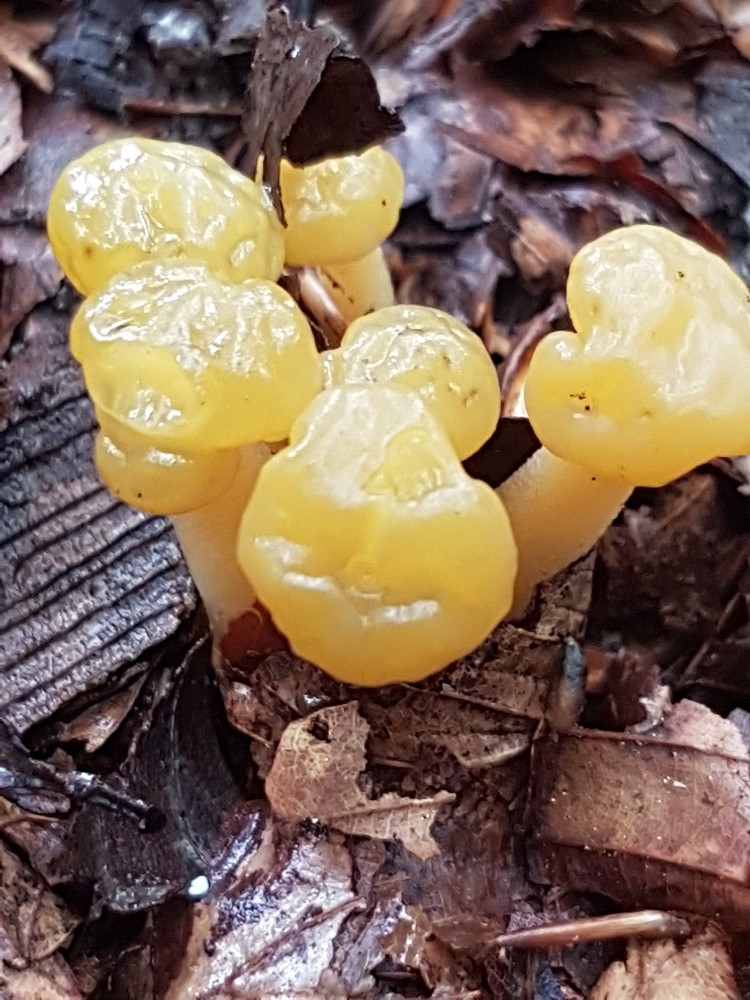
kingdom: Fungi
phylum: Ascomycota
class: Leotiomycetes
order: Leotiales
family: Leotiaceae
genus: Leotia
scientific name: Leotia lubrica
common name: ravsvamp
